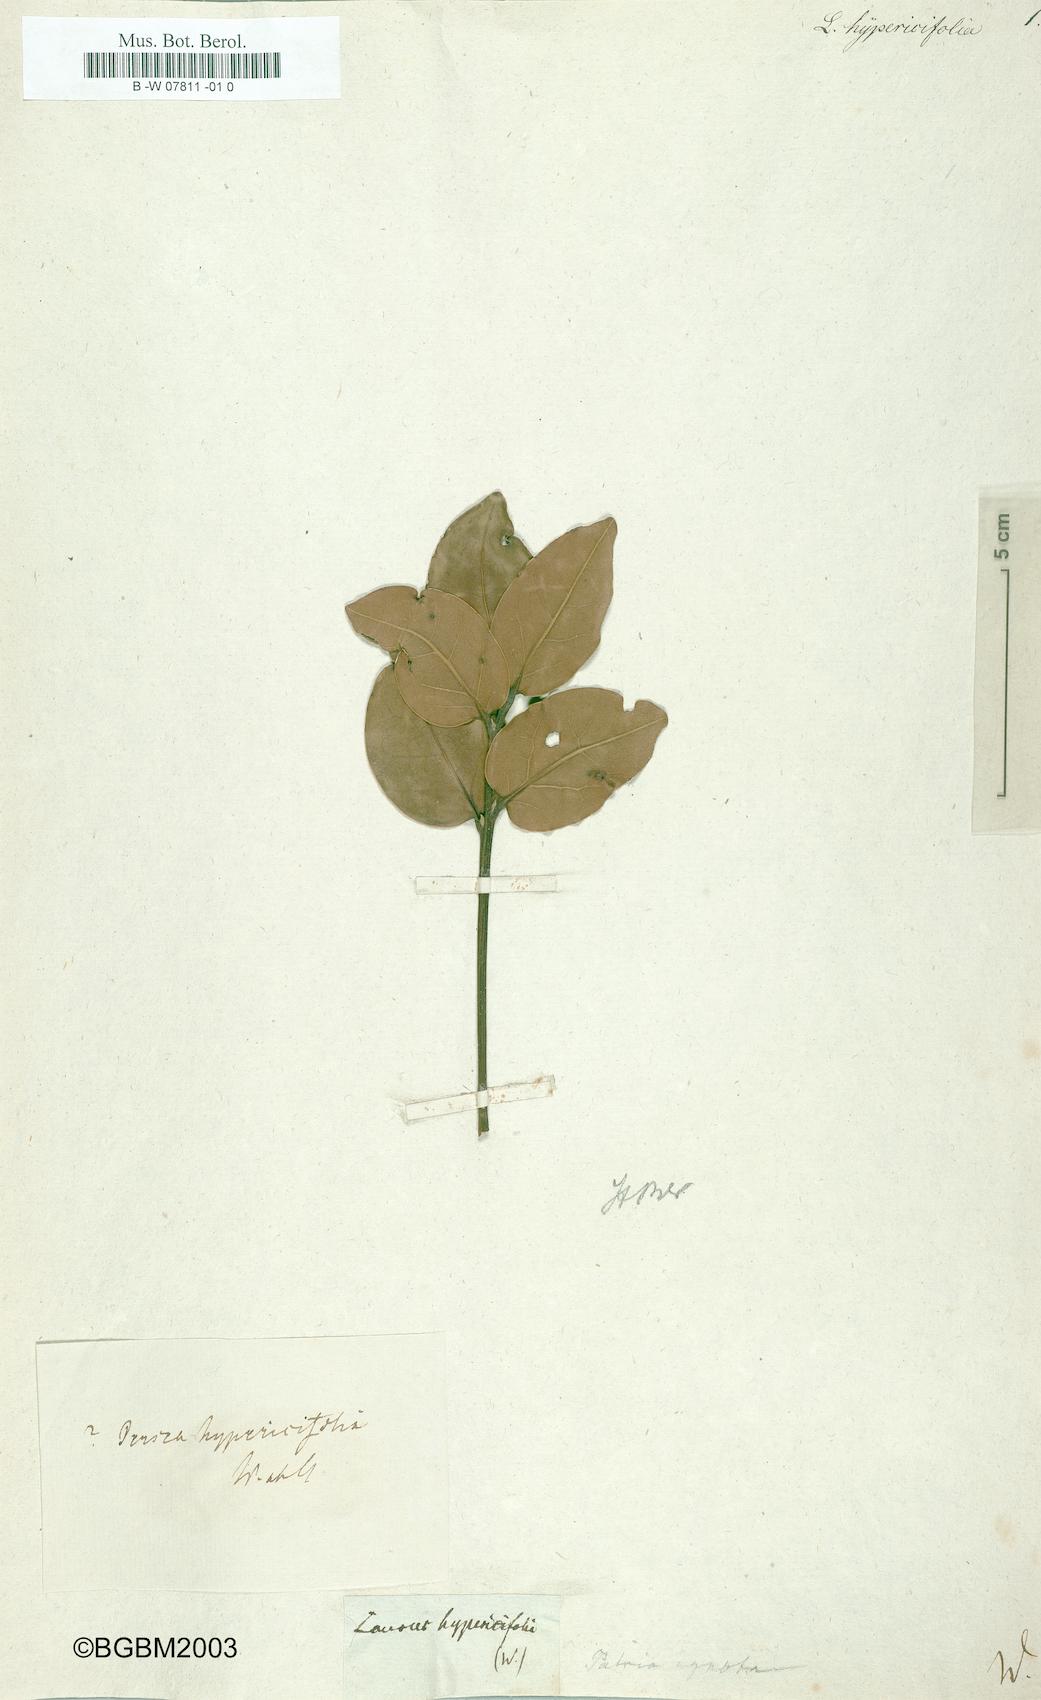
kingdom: Plantae
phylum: Tracheophyta
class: Magnoliopsida
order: Laurales
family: Lauraceae
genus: Aiouea
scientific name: Aiouea dubia
